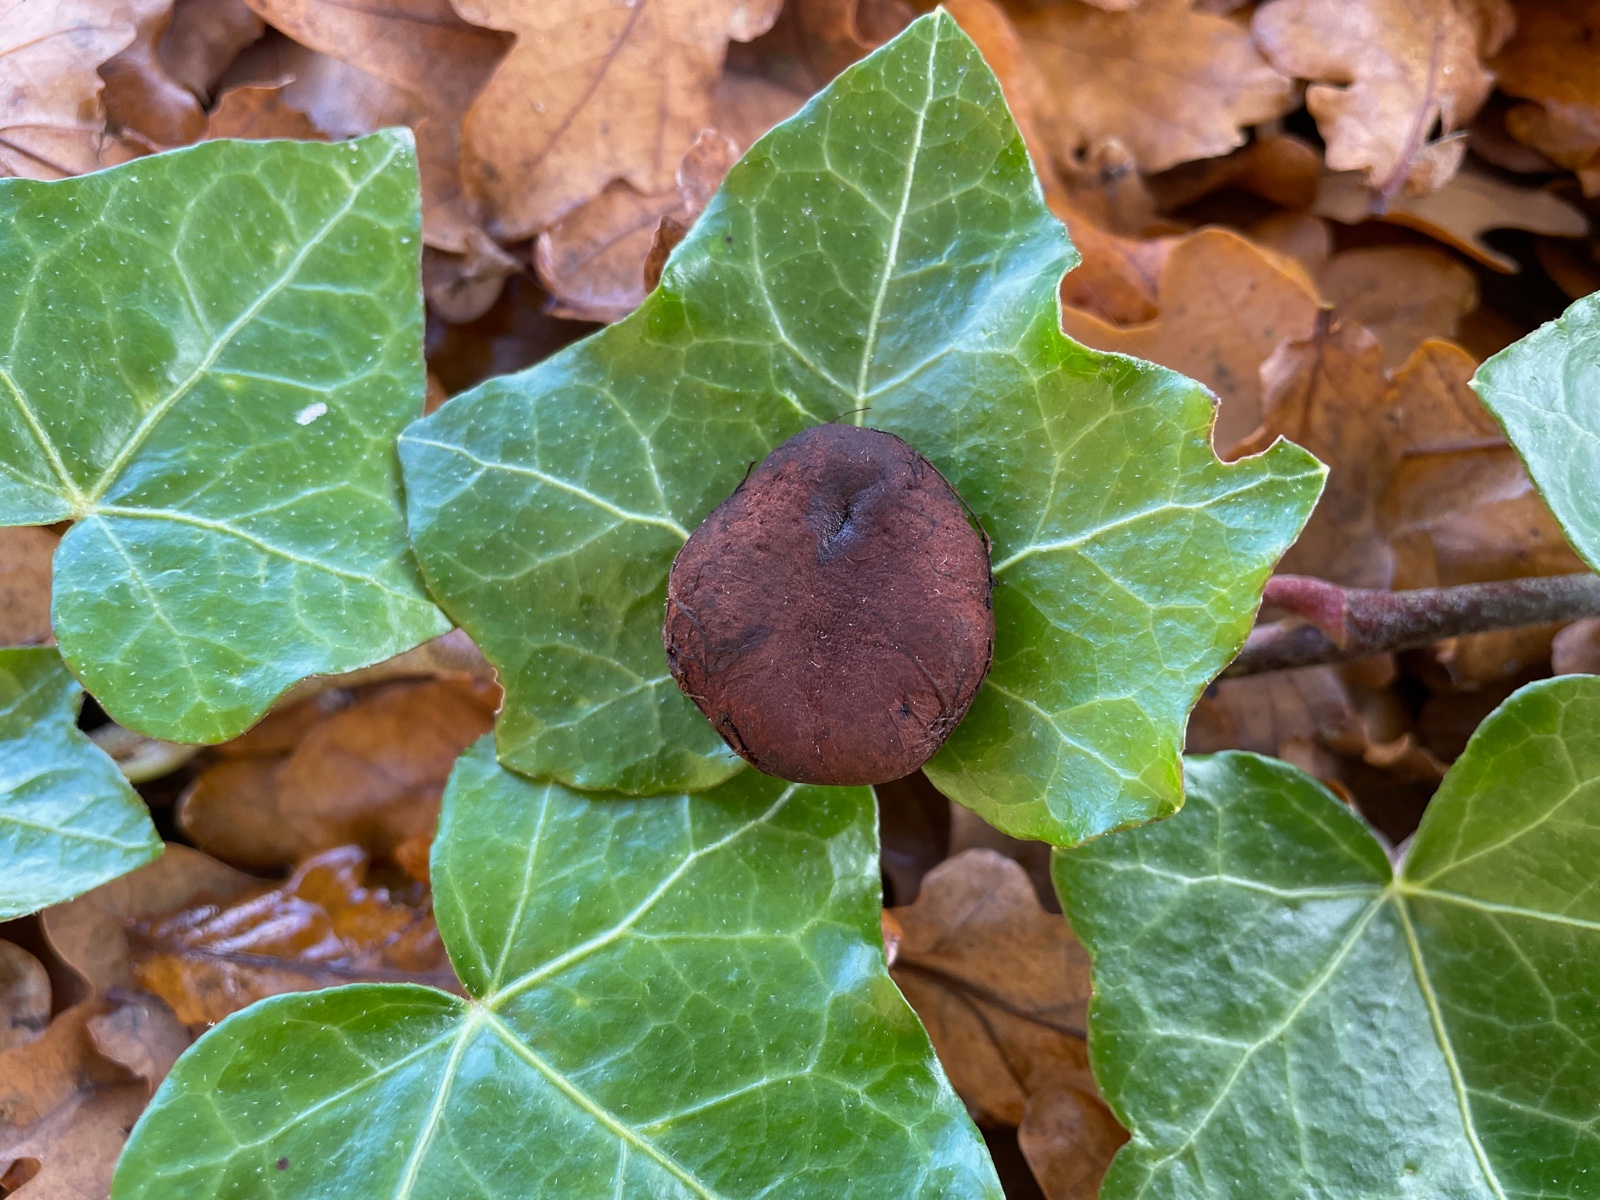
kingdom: Fungi
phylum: Basidiomycota
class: Agaricomycetes
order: Boletales
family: Paxillaceae
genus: Melanogaster
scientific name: Melanogaster macrosporus
